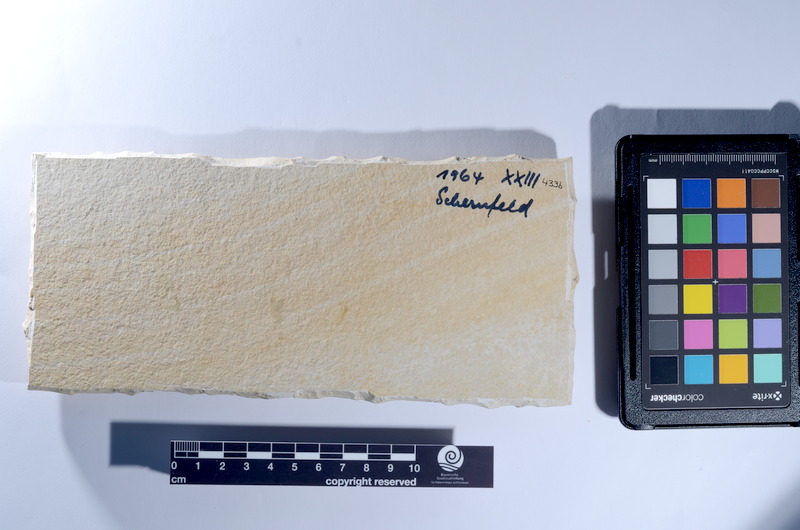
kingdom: Animalia
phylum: Chordata
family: Ascalaboidae
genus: Tharsis
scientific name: Tharsis dubius
